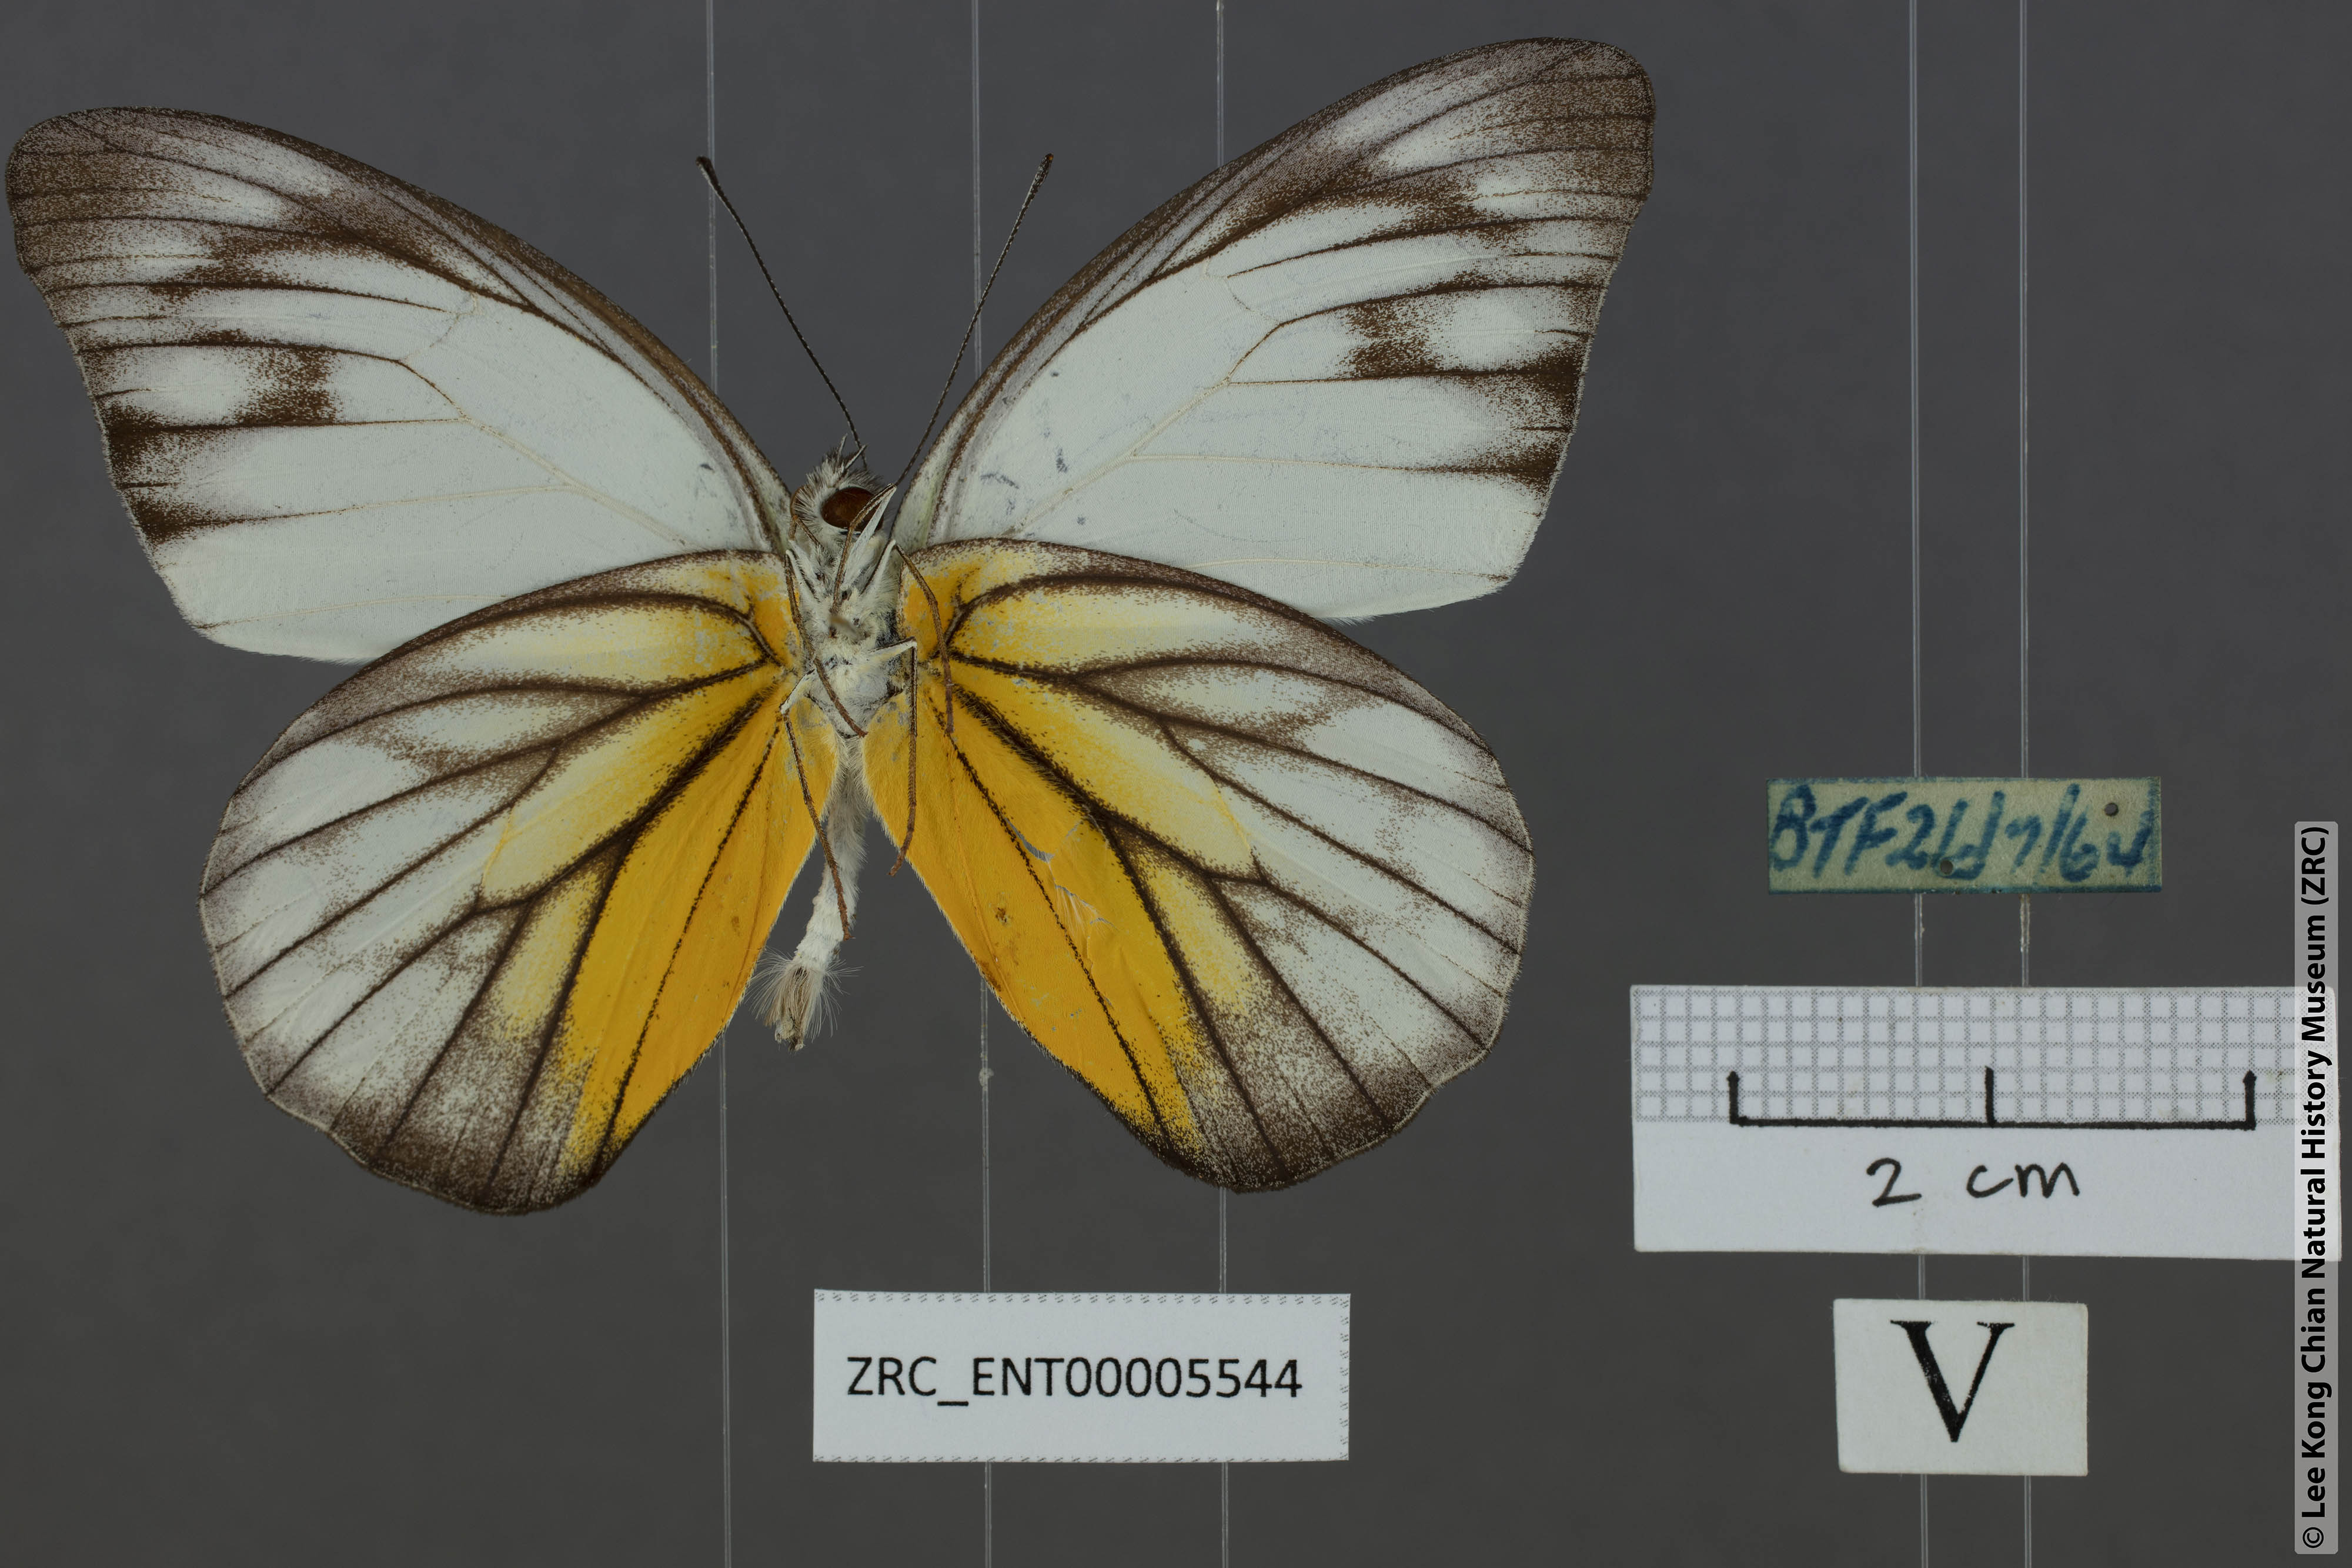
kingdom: Animalia
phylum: Arthropoda
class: Insecta
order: Lepidoptera
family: Pieridae
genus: Appias
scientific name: Appias cardena
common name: Yellow puffin
